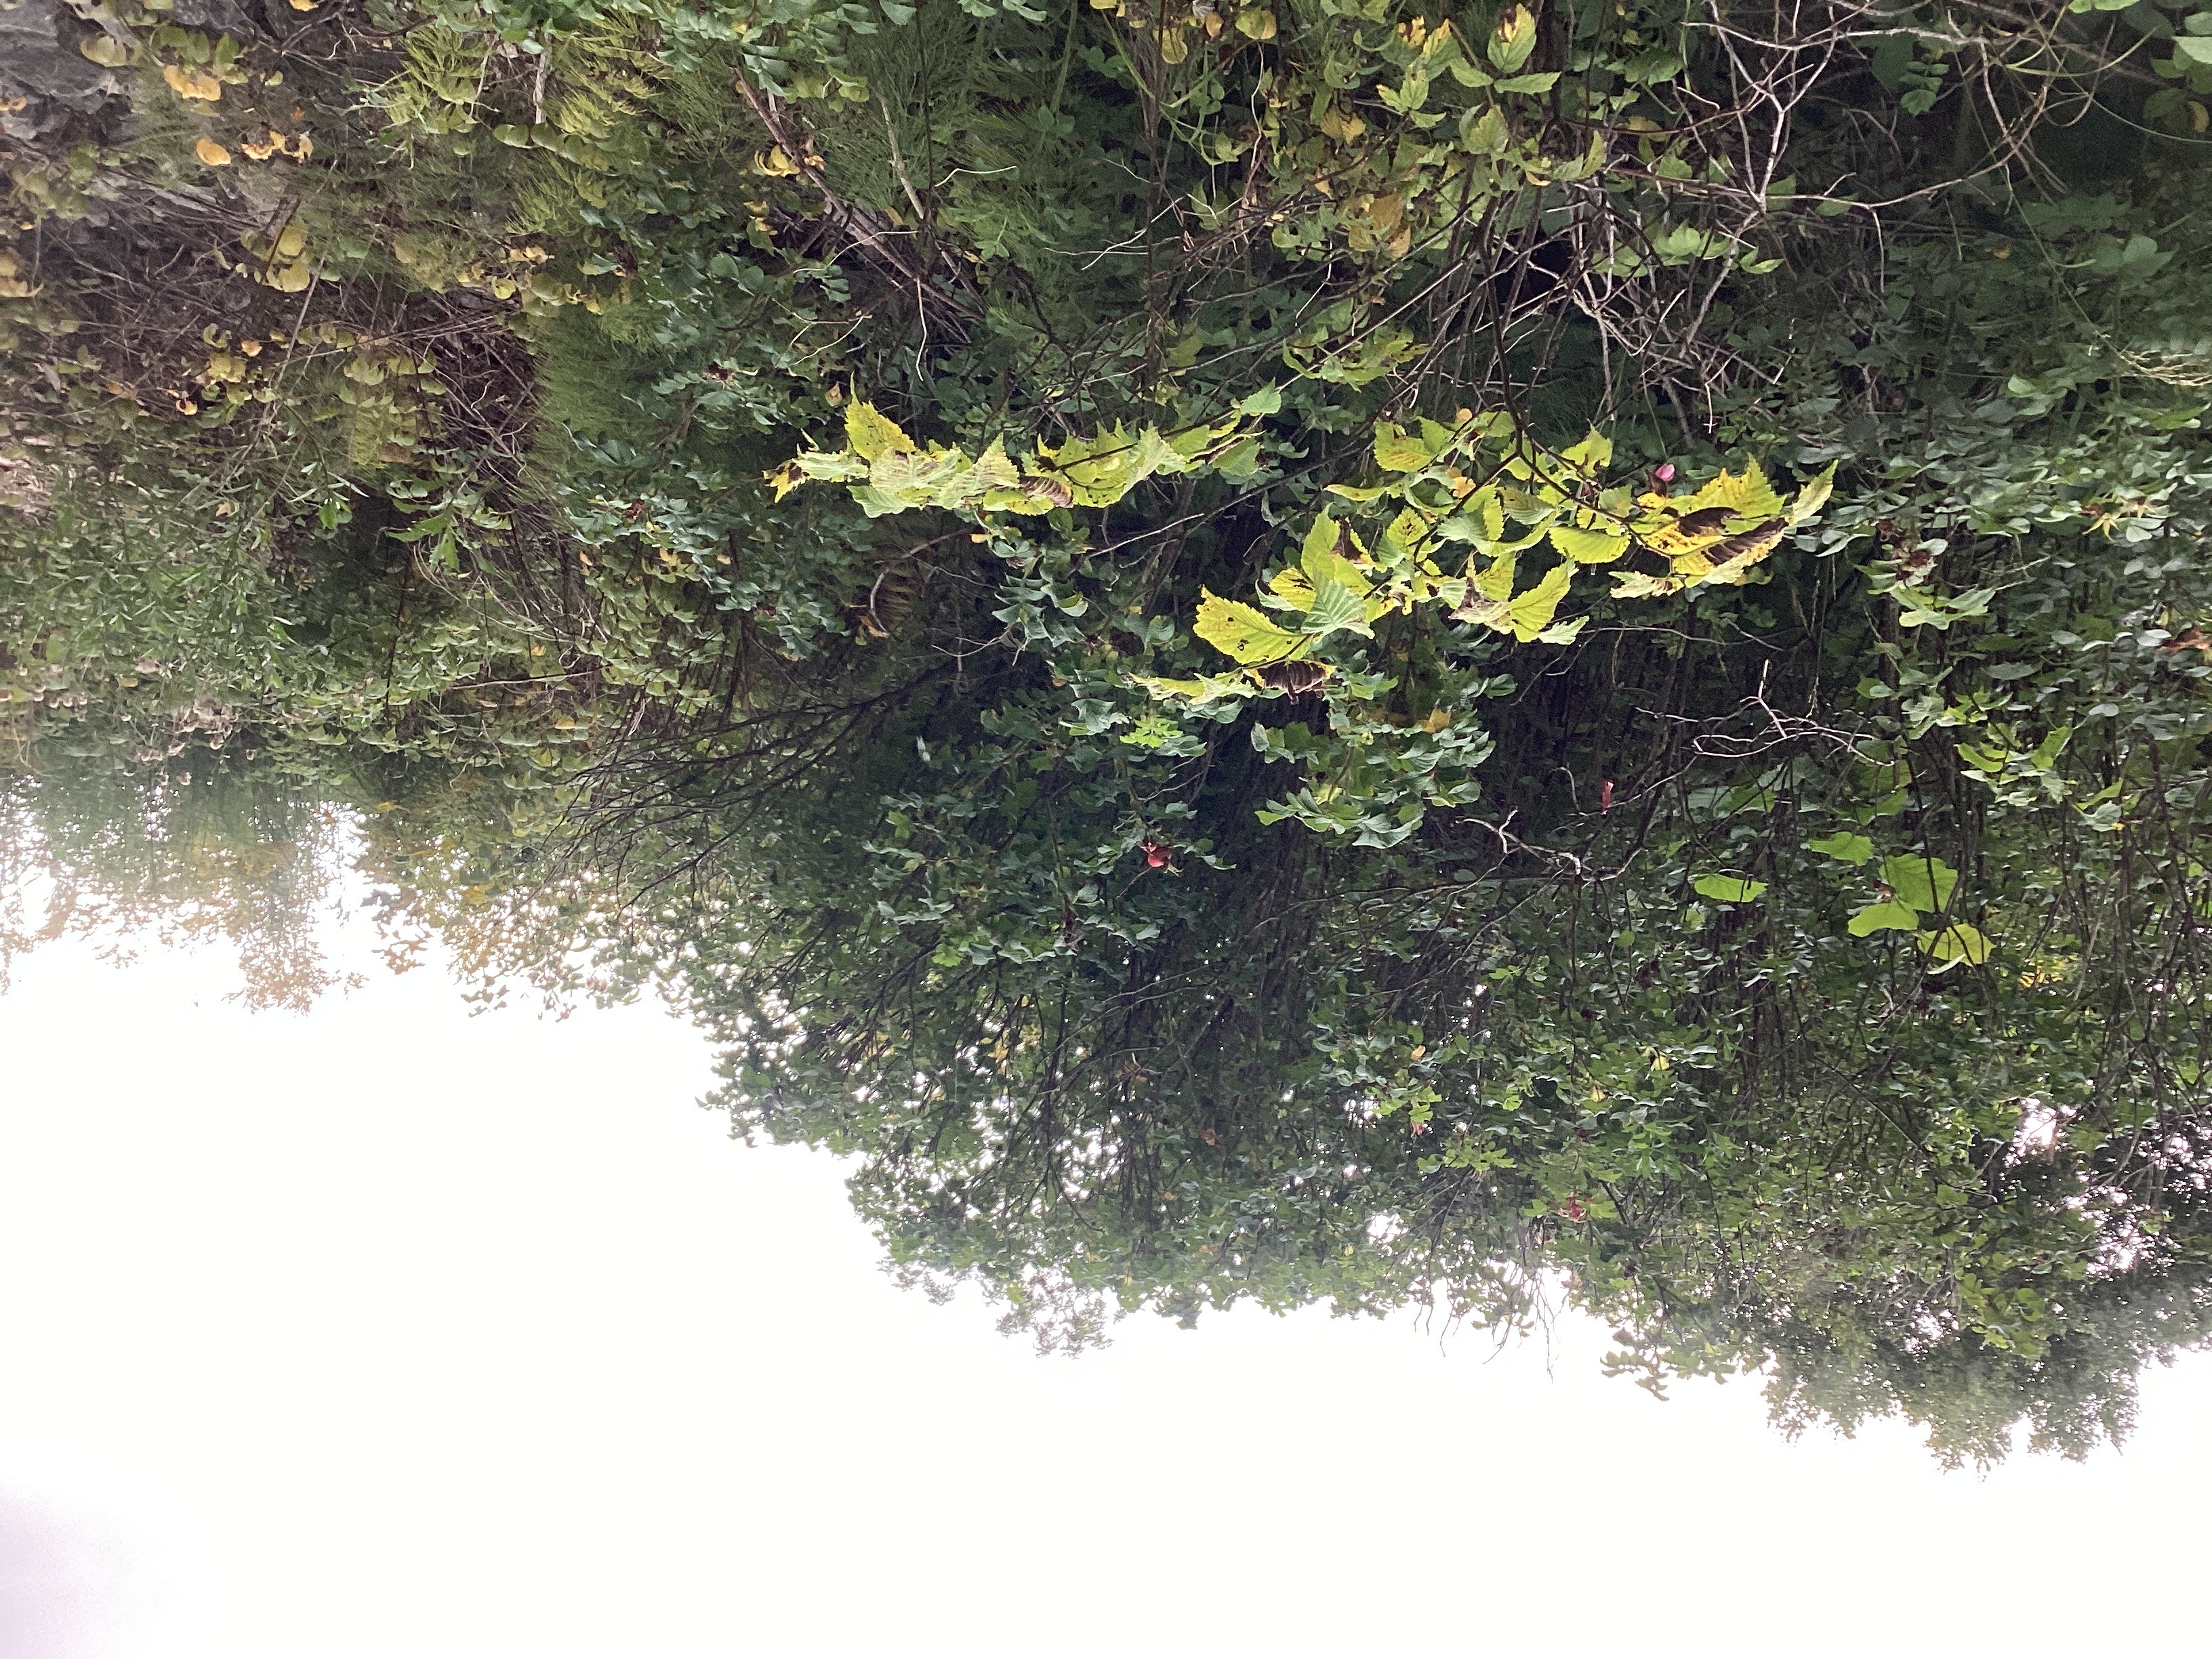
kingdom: Plantae
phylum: Tracheophyta
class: Magnoliopsida
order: Rosales
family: Rosaceae
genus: Rosa
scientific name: Rosa rugosa
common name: rynkerose
